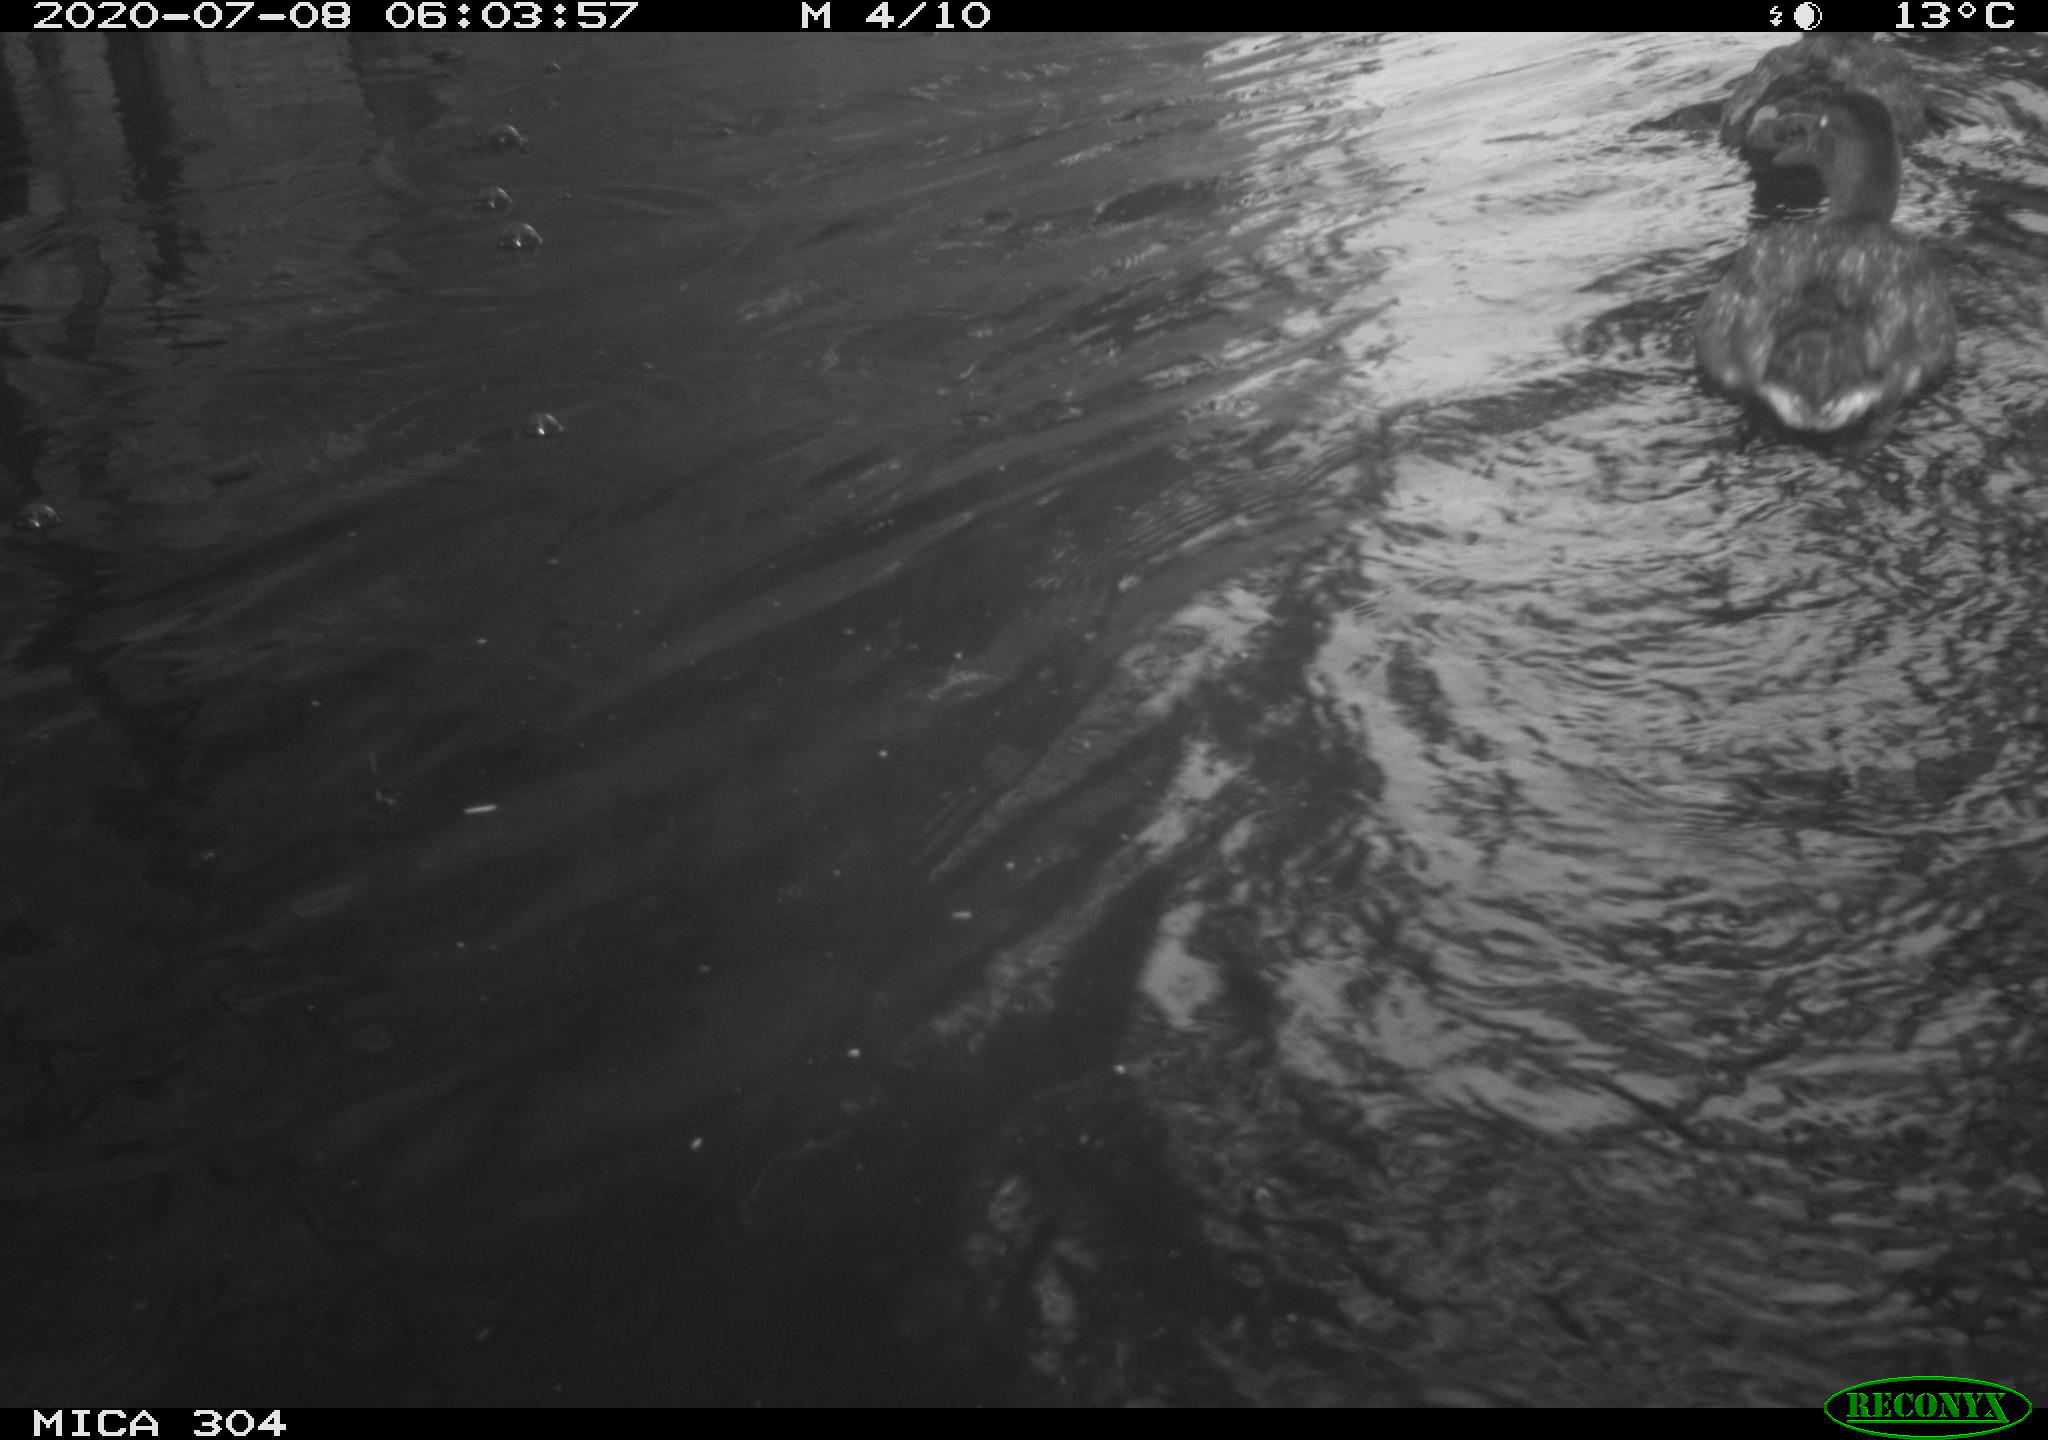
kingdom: Animalia
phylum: Chordata
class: Aves
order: Anseriformes
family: Anatidae
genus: Anas
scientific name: Anas platyrhynchos
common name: Mallard
